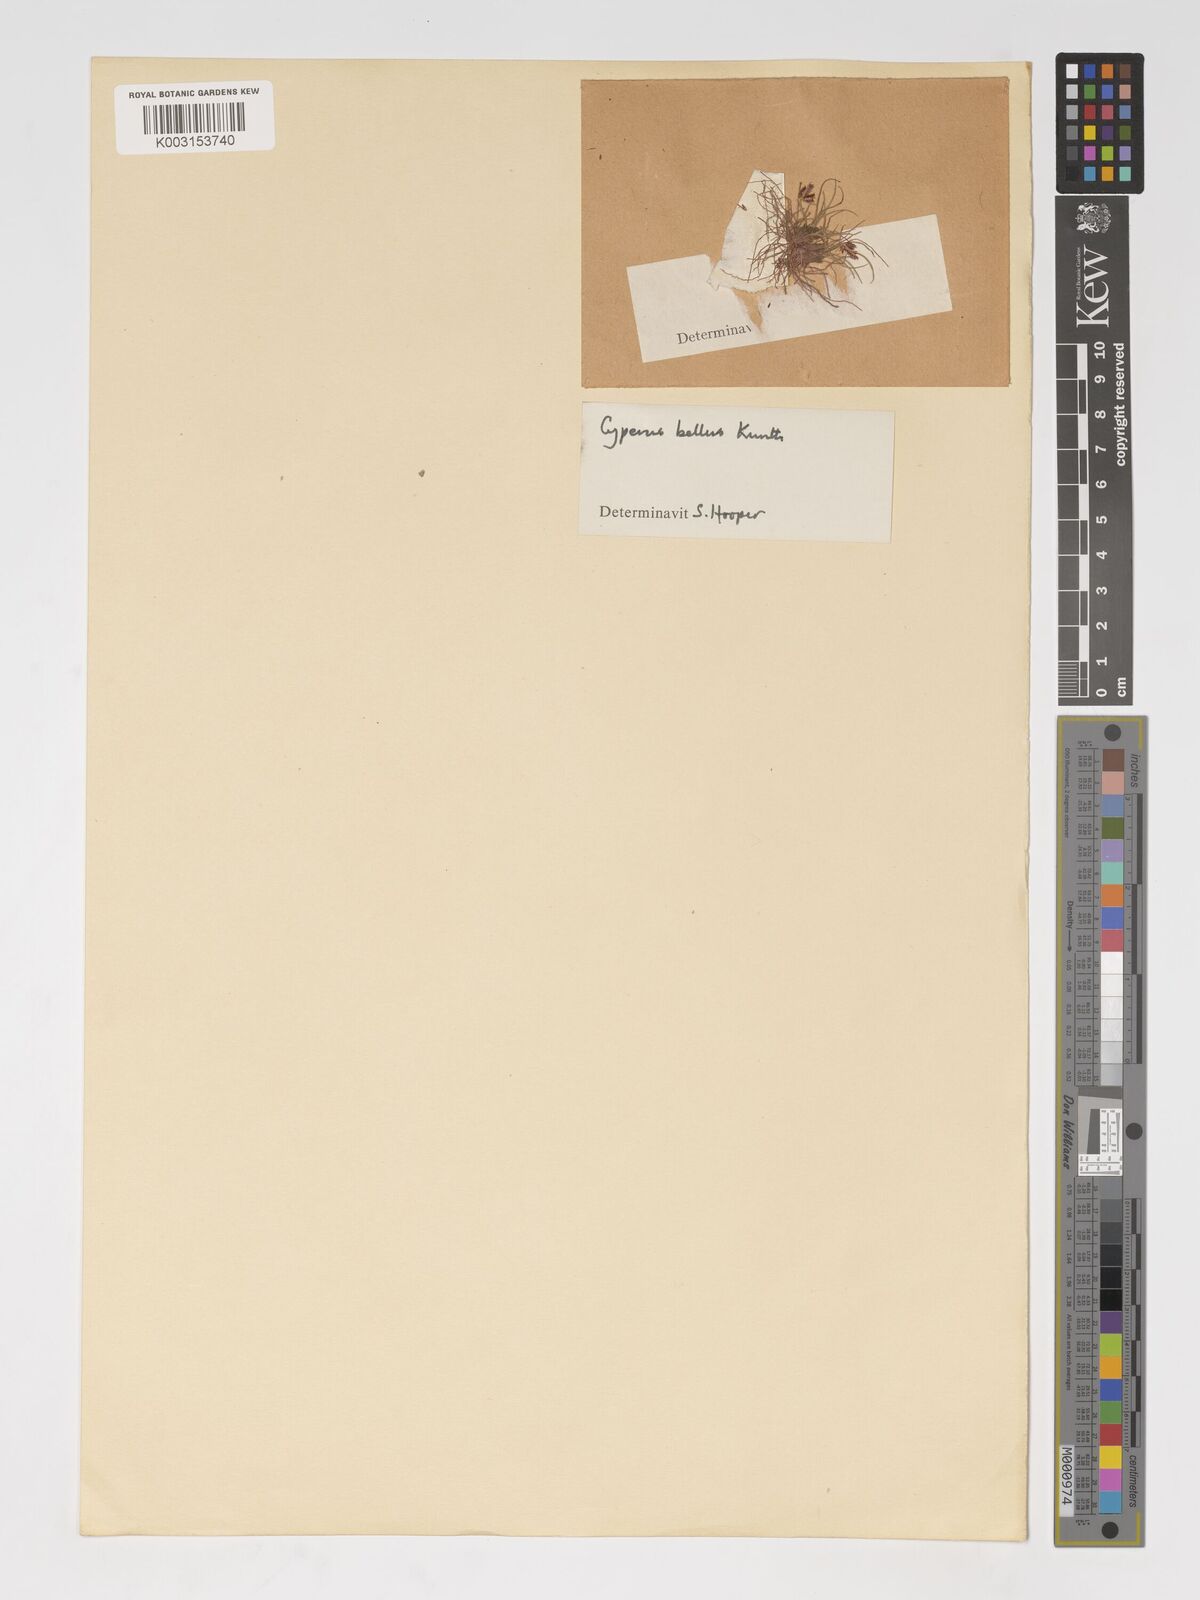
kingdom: Plantae
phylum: Tracheophyta
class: Liliopsida
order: Poales
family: Cyperaceae
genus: Cyperus
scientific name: Cyperus bellus
